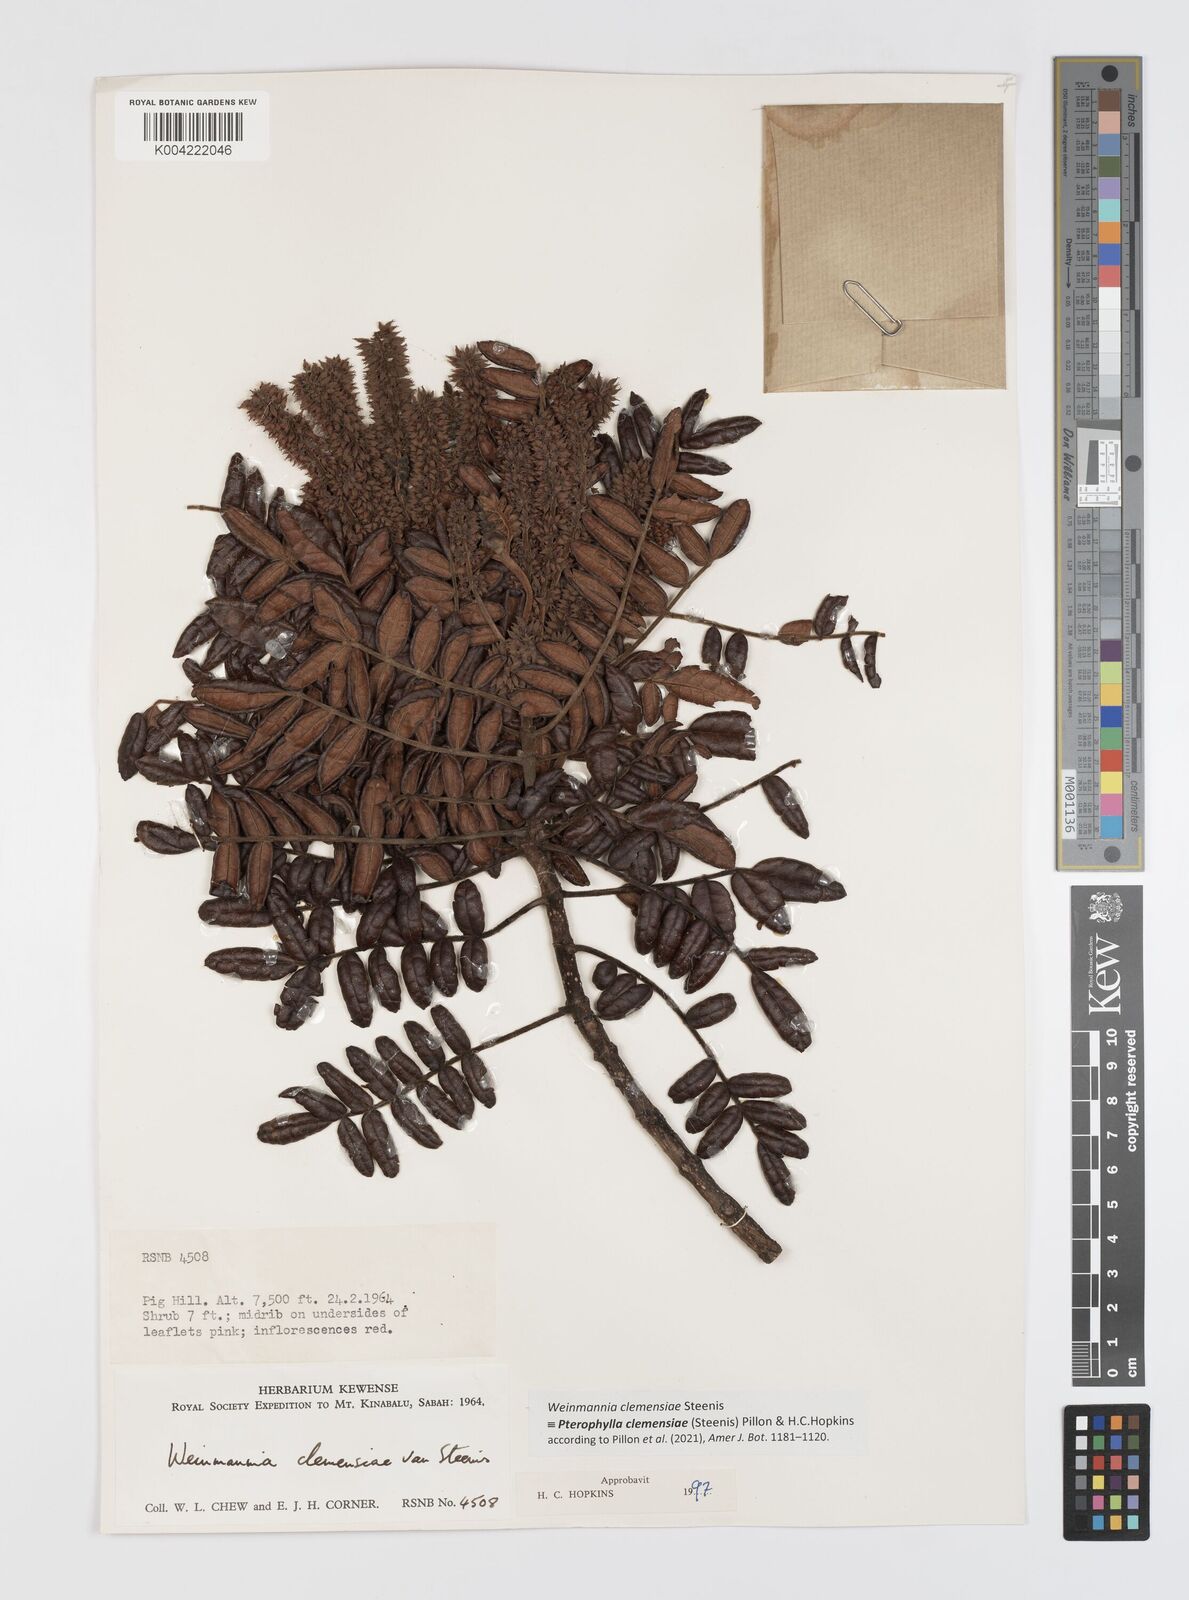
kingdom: Plantae
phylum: Tracheophyta
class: Magnoliopsida
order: Oxalidales
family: Cunoniaceae
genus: Pterophylla
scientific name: Pterophylla clemensiae
